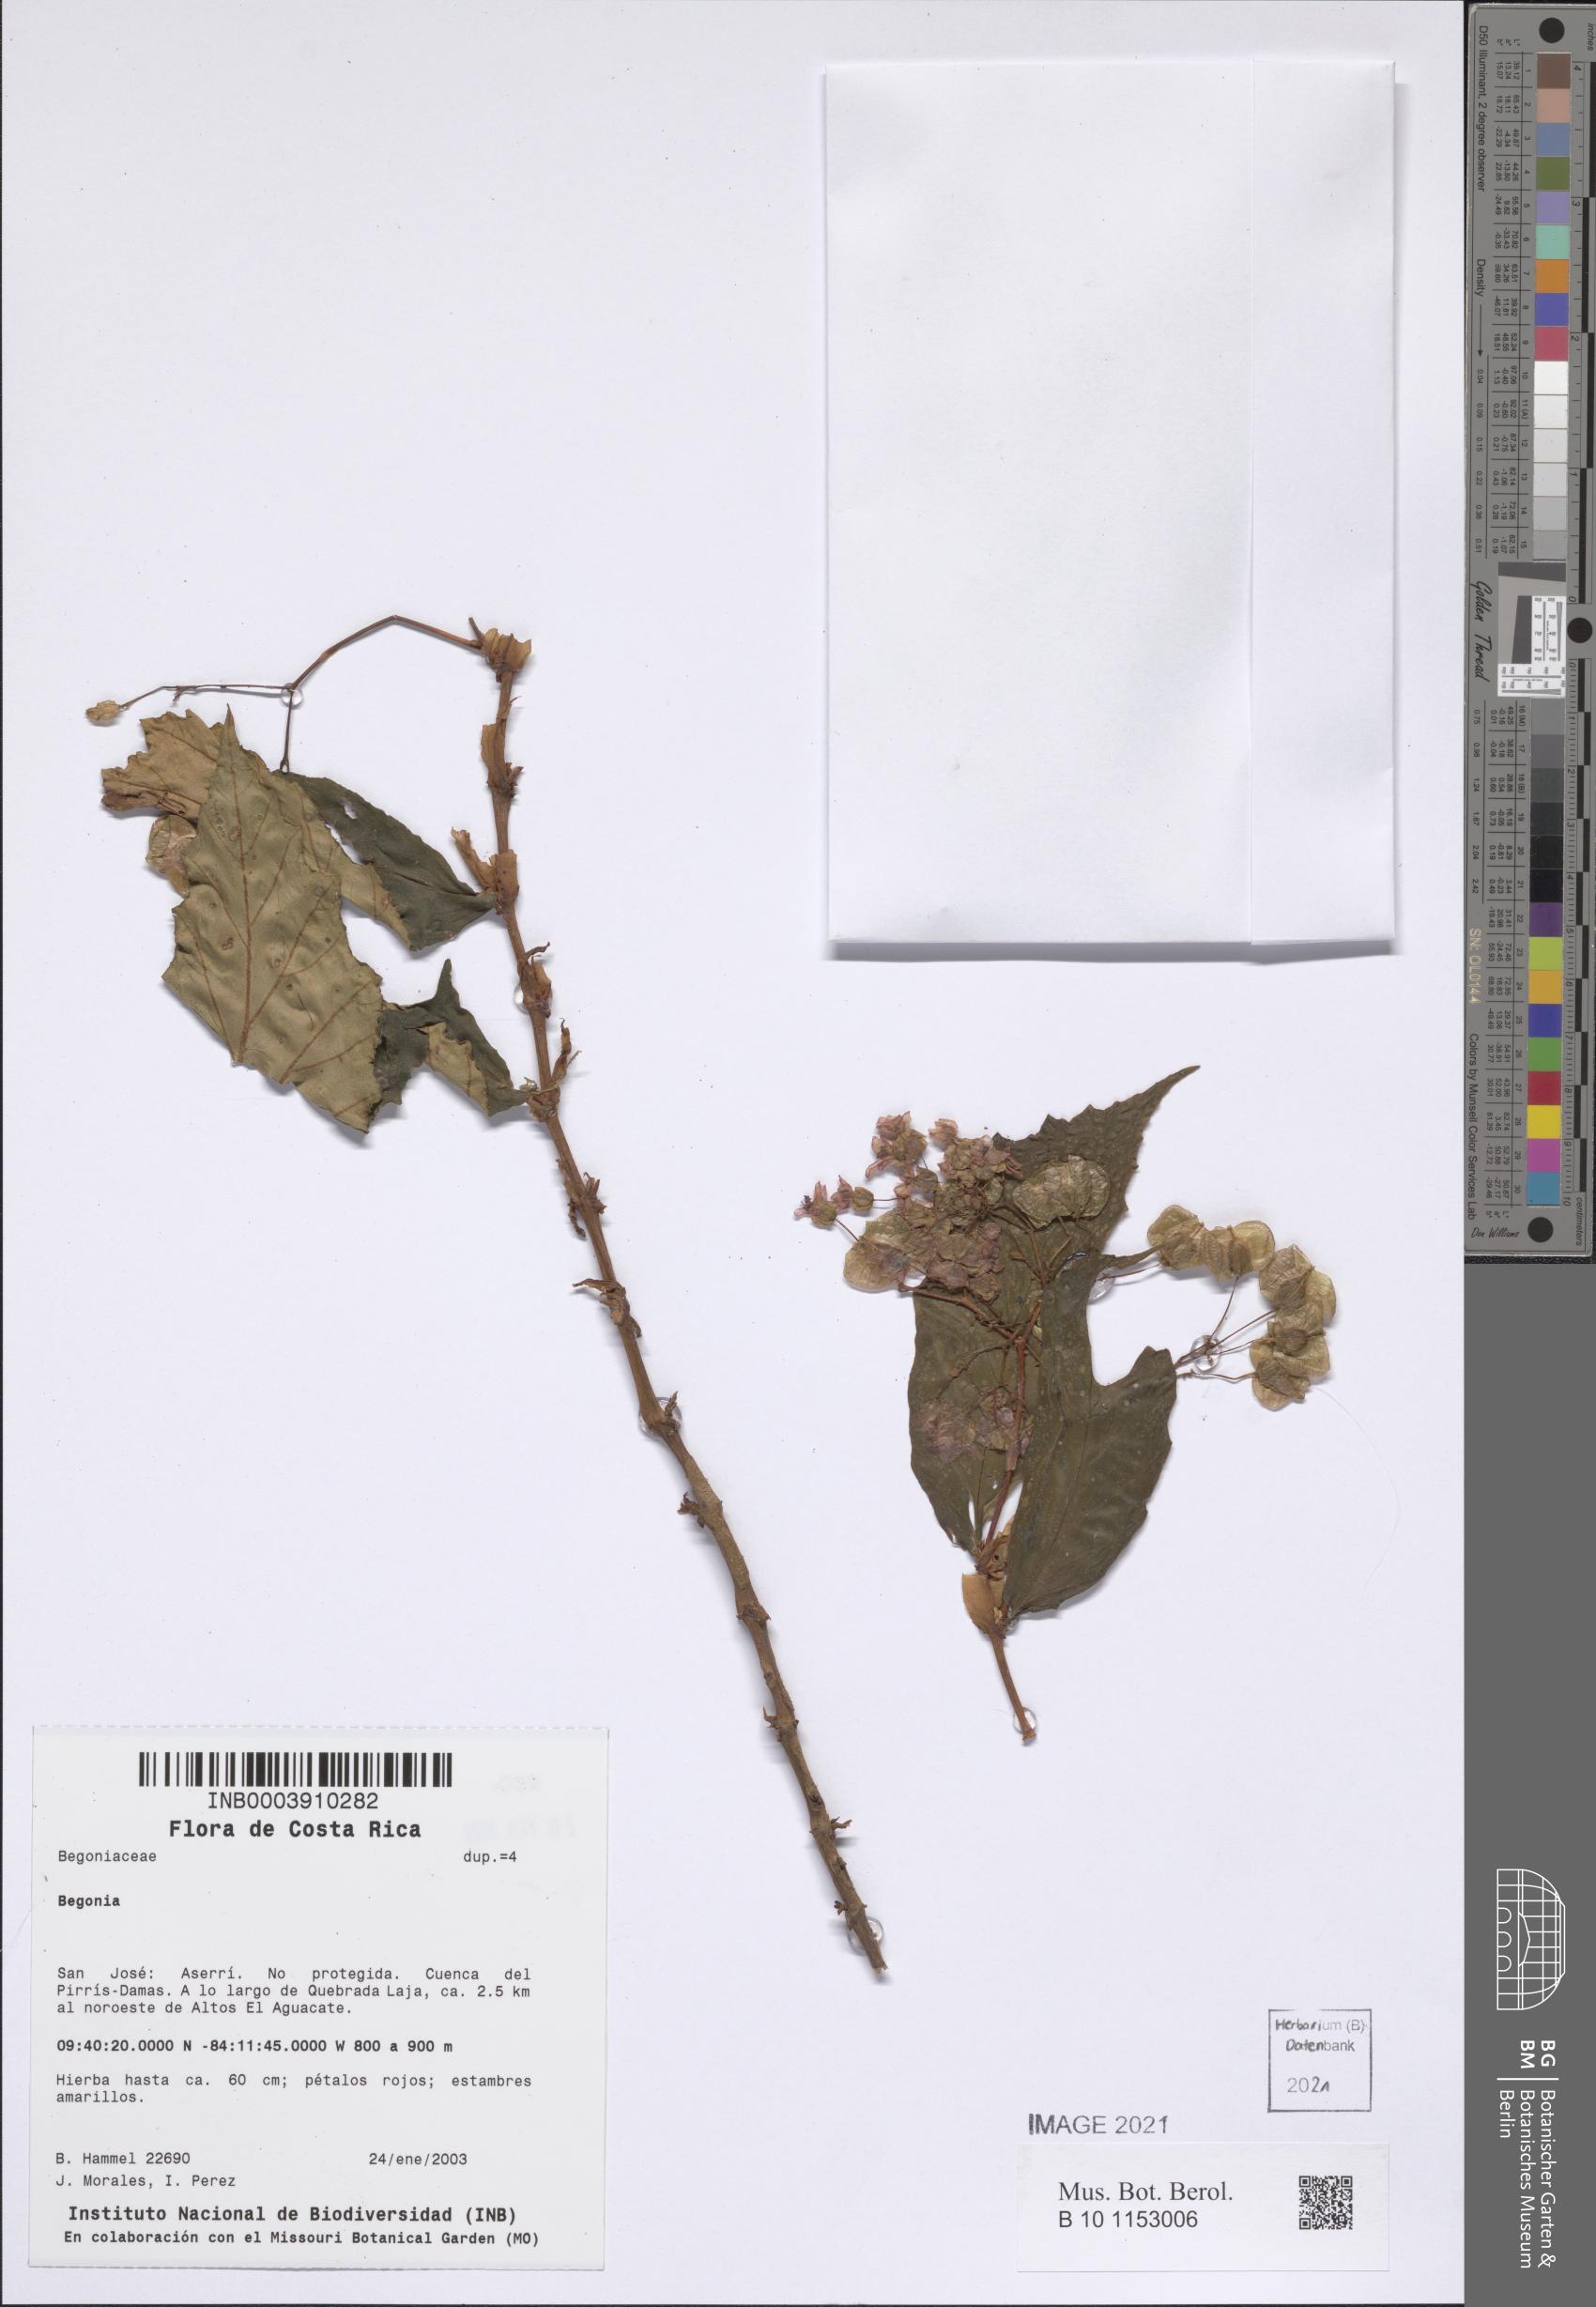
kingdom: Plantae
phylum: Tracheophyta
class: Magnoliopsida
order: Cucurbitales
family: Begoniaceae
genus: Begonia
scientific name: Begonia
